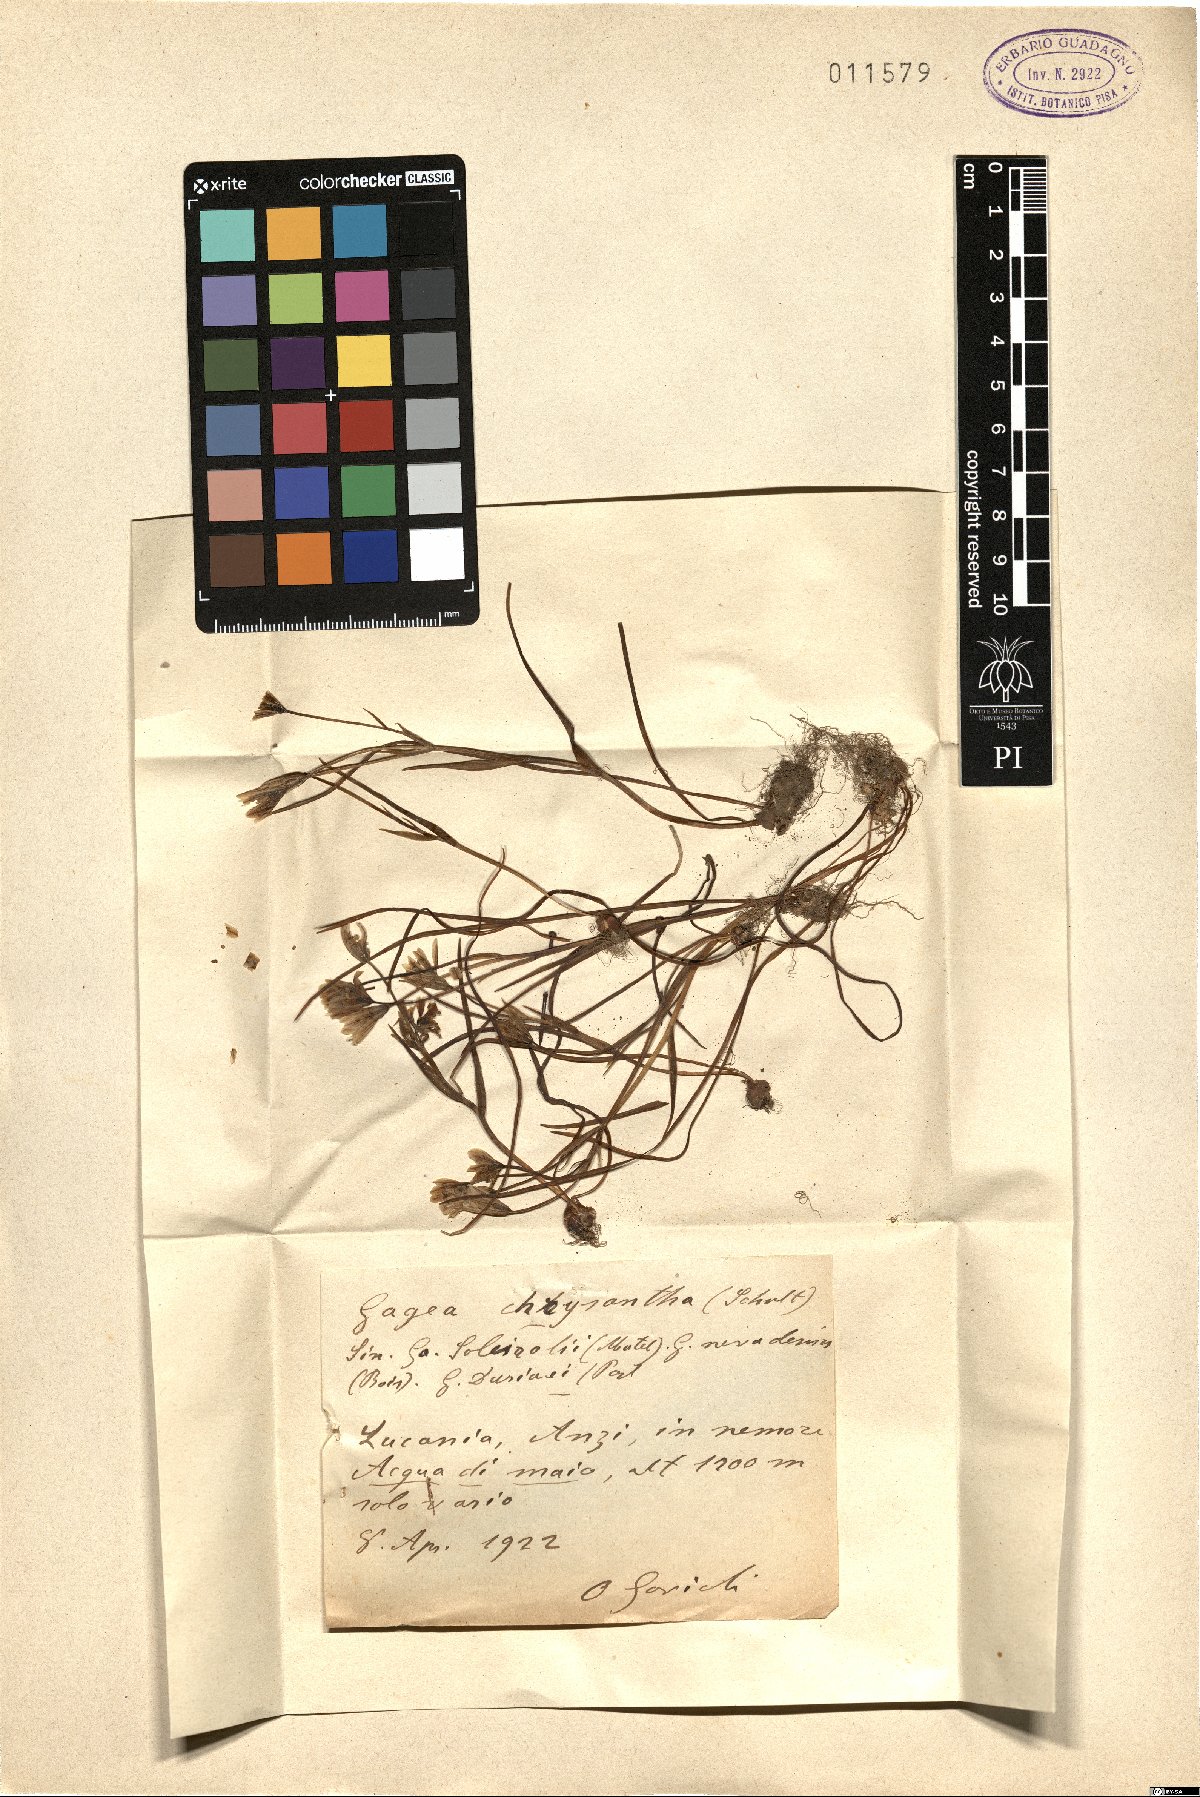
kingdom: Plantae
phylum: Tracheophyta
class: Liliopsida
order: Liliales
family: Liliaceae
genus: Gagea
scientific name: Gagea lojaconoi
